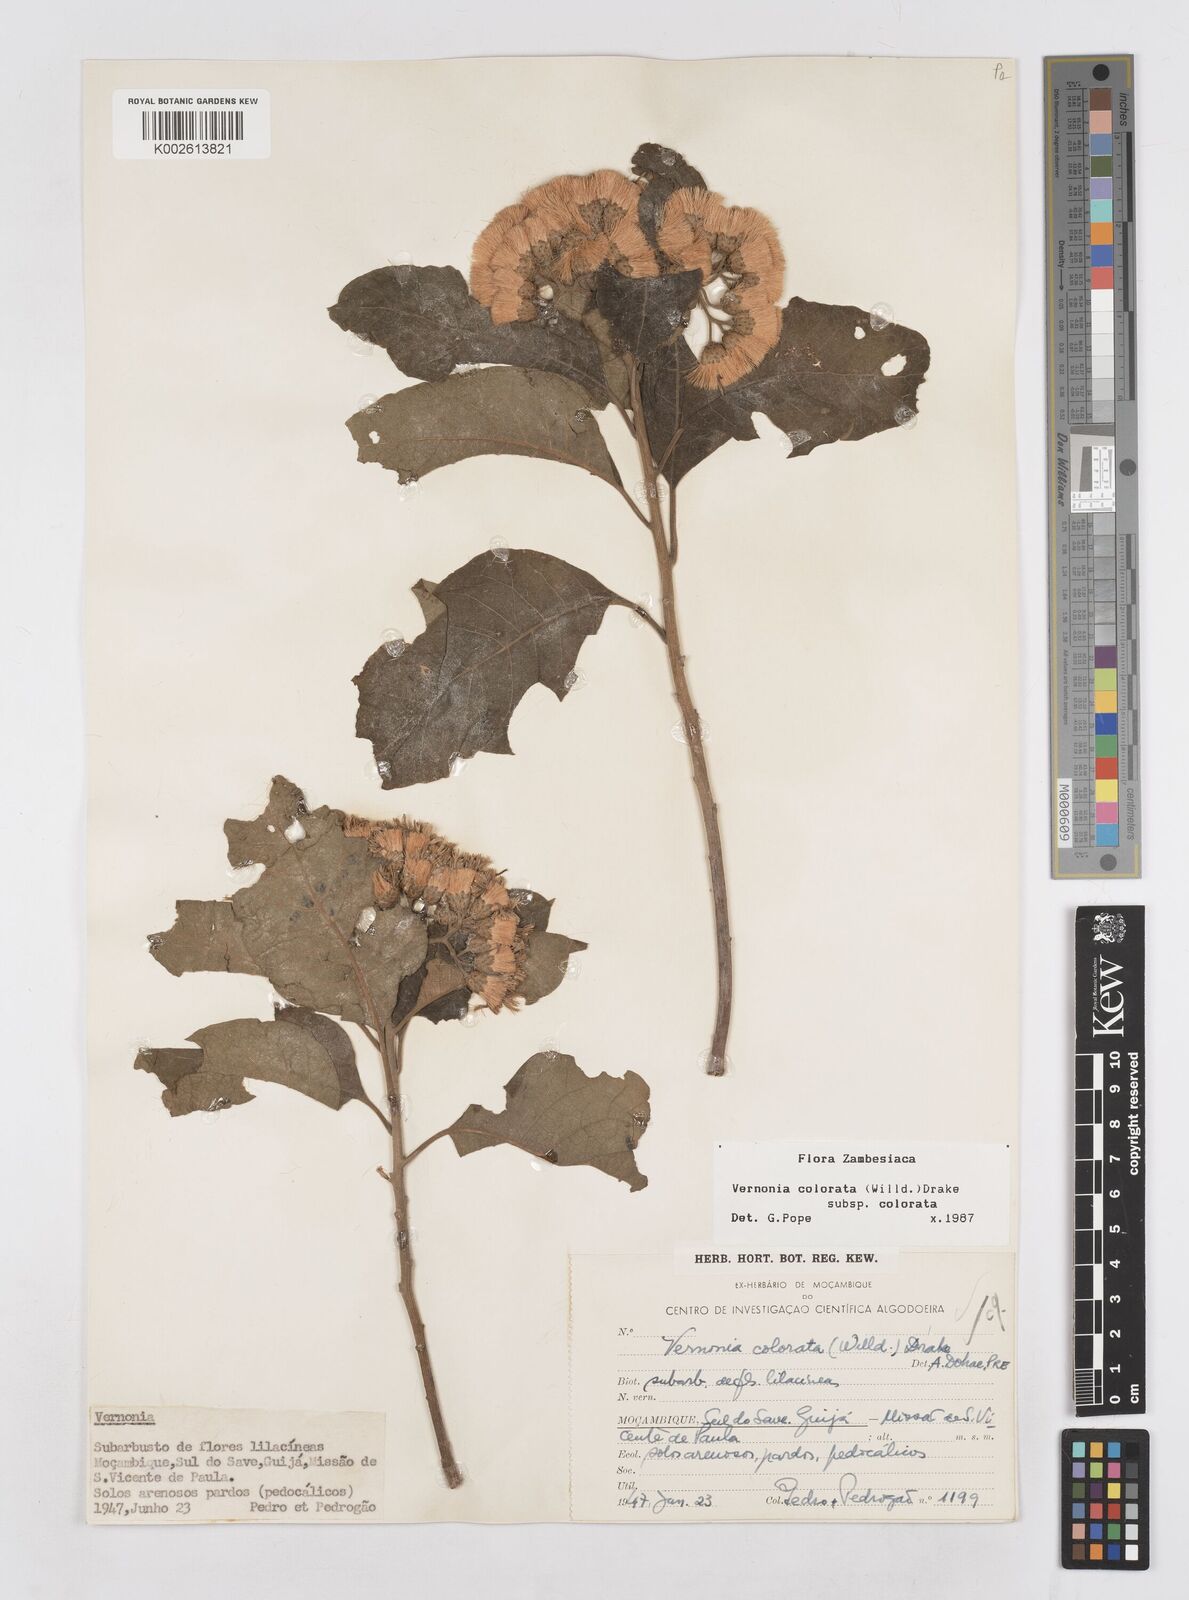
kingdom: Plantae
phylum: Tracheophyta
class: Magnoliopsida
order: Asterales
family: Asteraceae
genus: Vernonia
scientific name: Vernonia colorata
